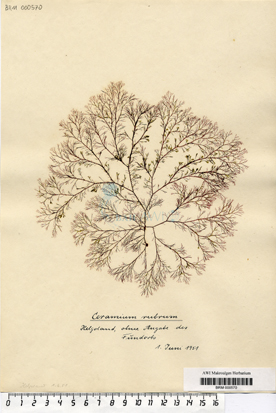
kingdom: Plantae
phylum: Rhodophyta
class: Florideophyceae
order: Ceramiales
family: Ceramiaceae
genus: Ceramium
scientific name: Ceramium virgatum
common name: Red hornweed
